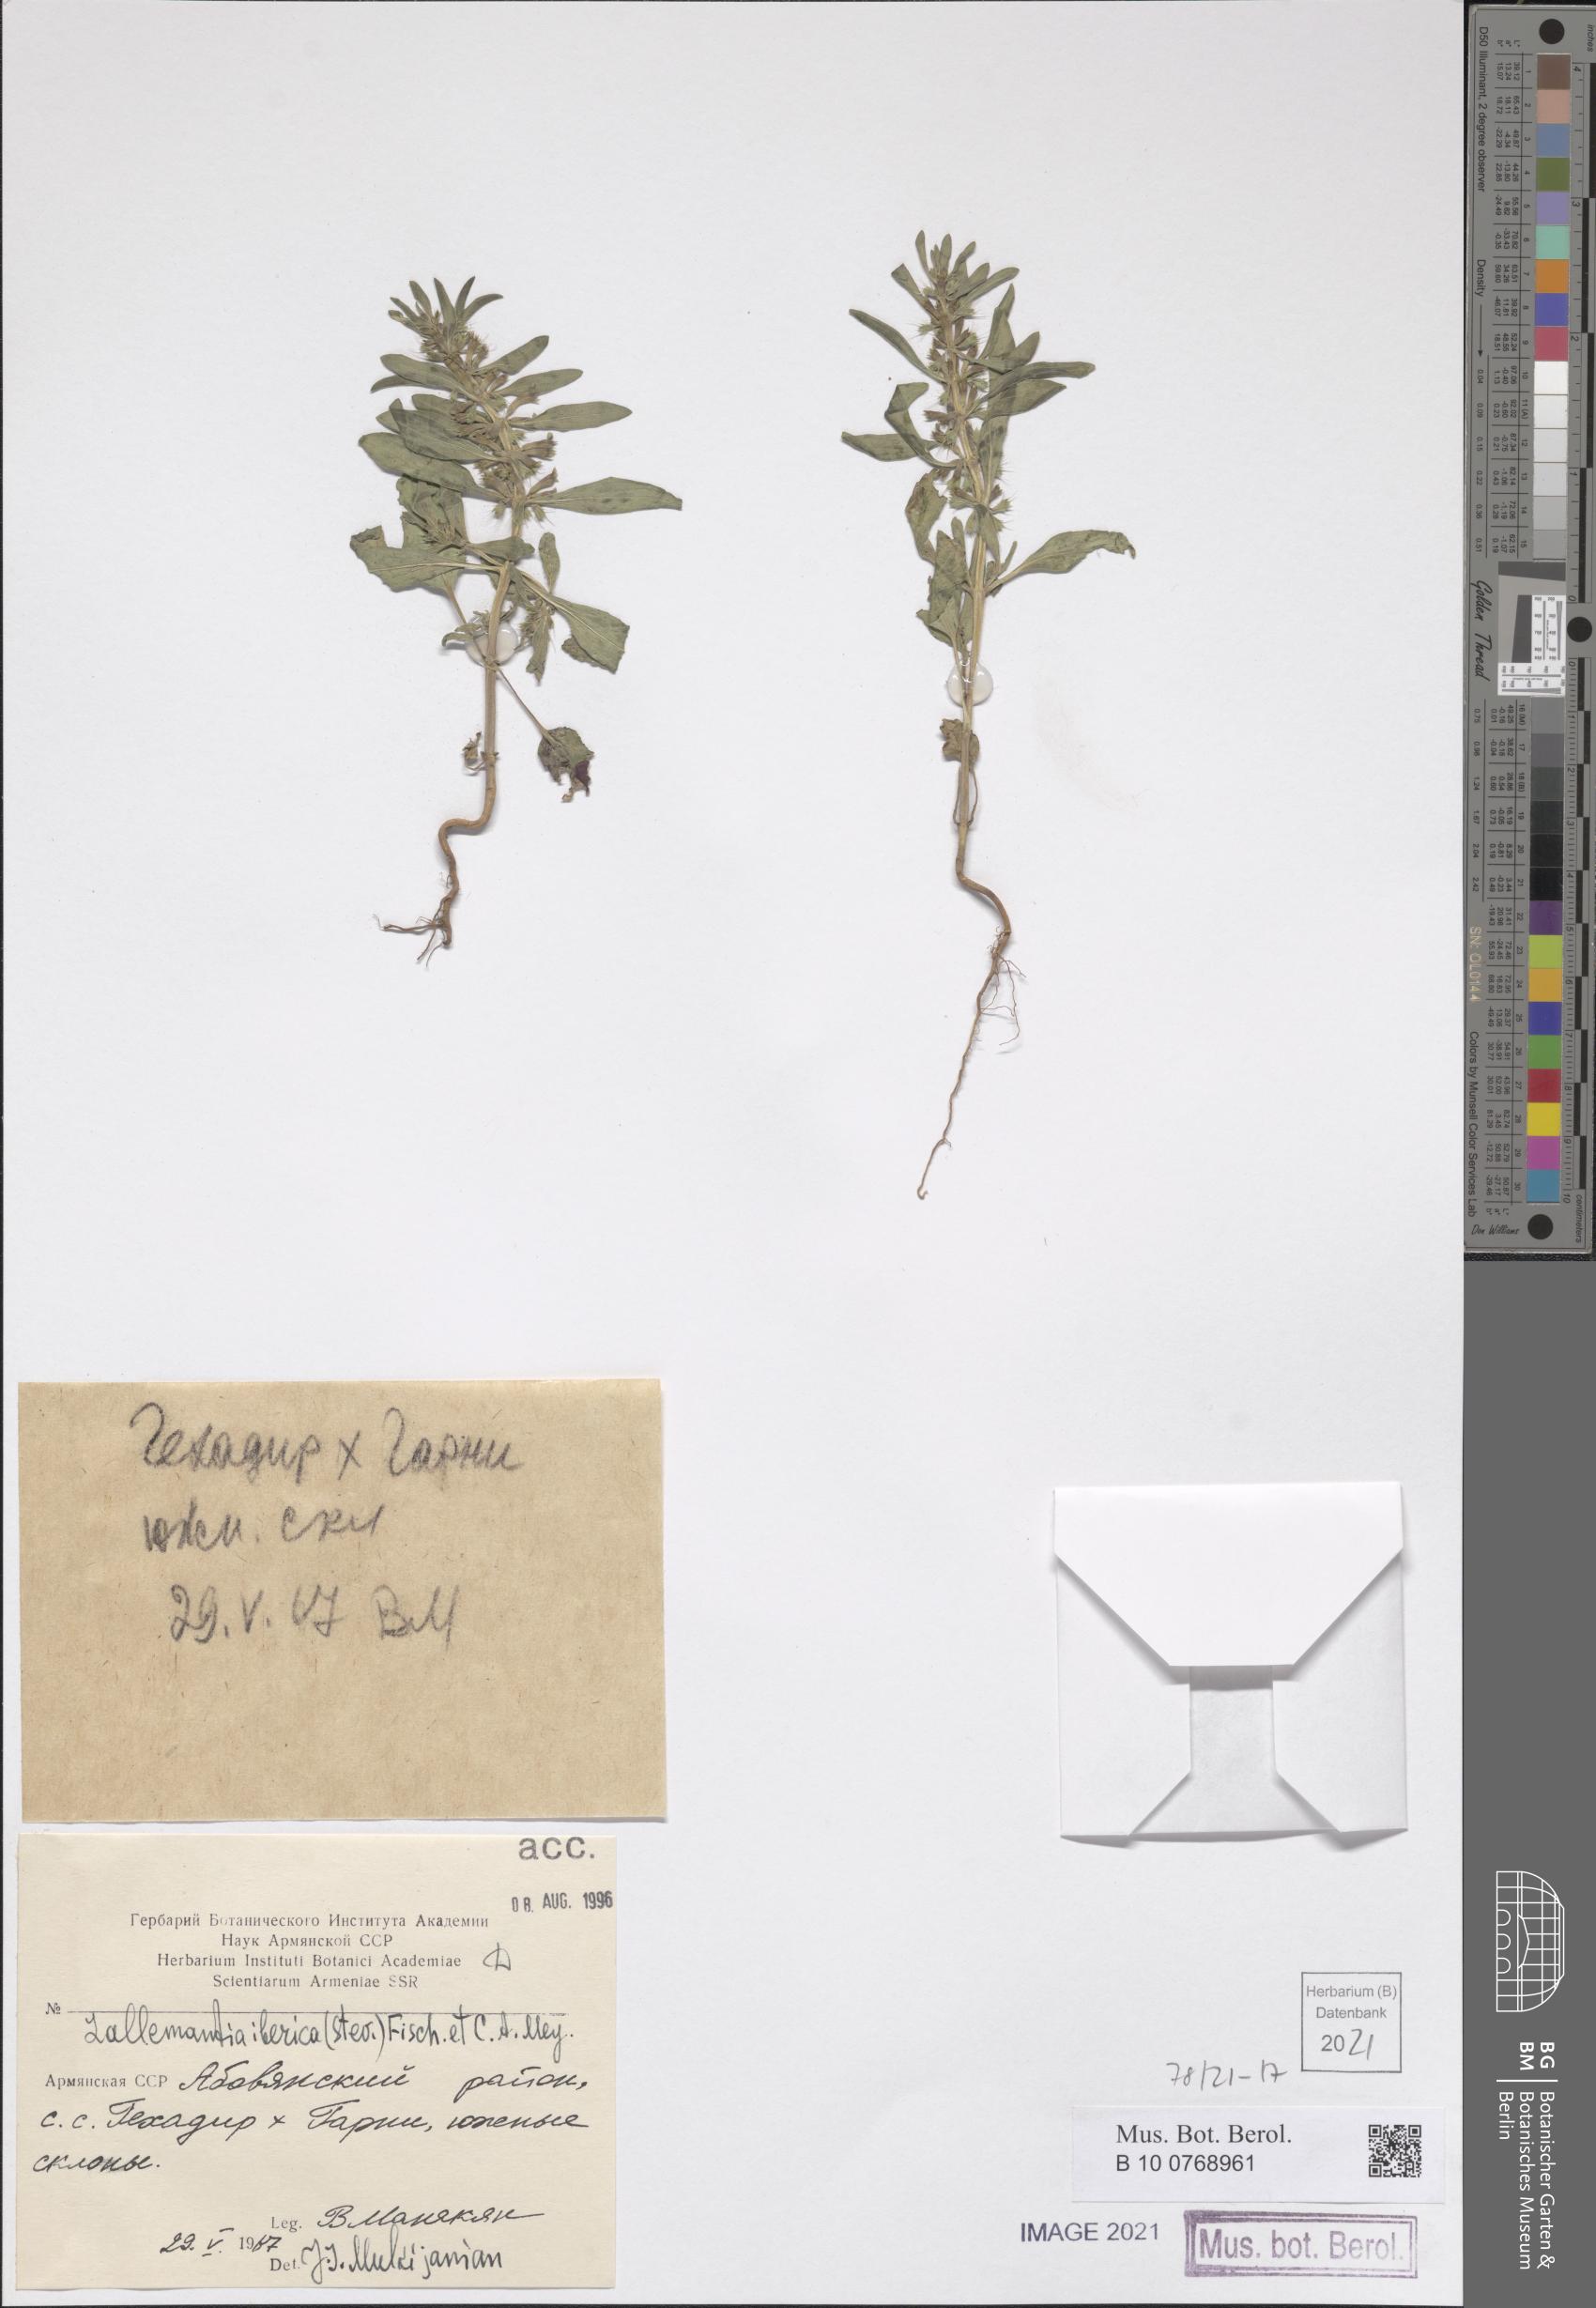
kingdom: Plantae
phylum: Tracheophyta
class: Magnoliopsida
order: Lamiales
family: Lamiaceae
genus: Lallemantia
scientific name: Lallemantia iberica
